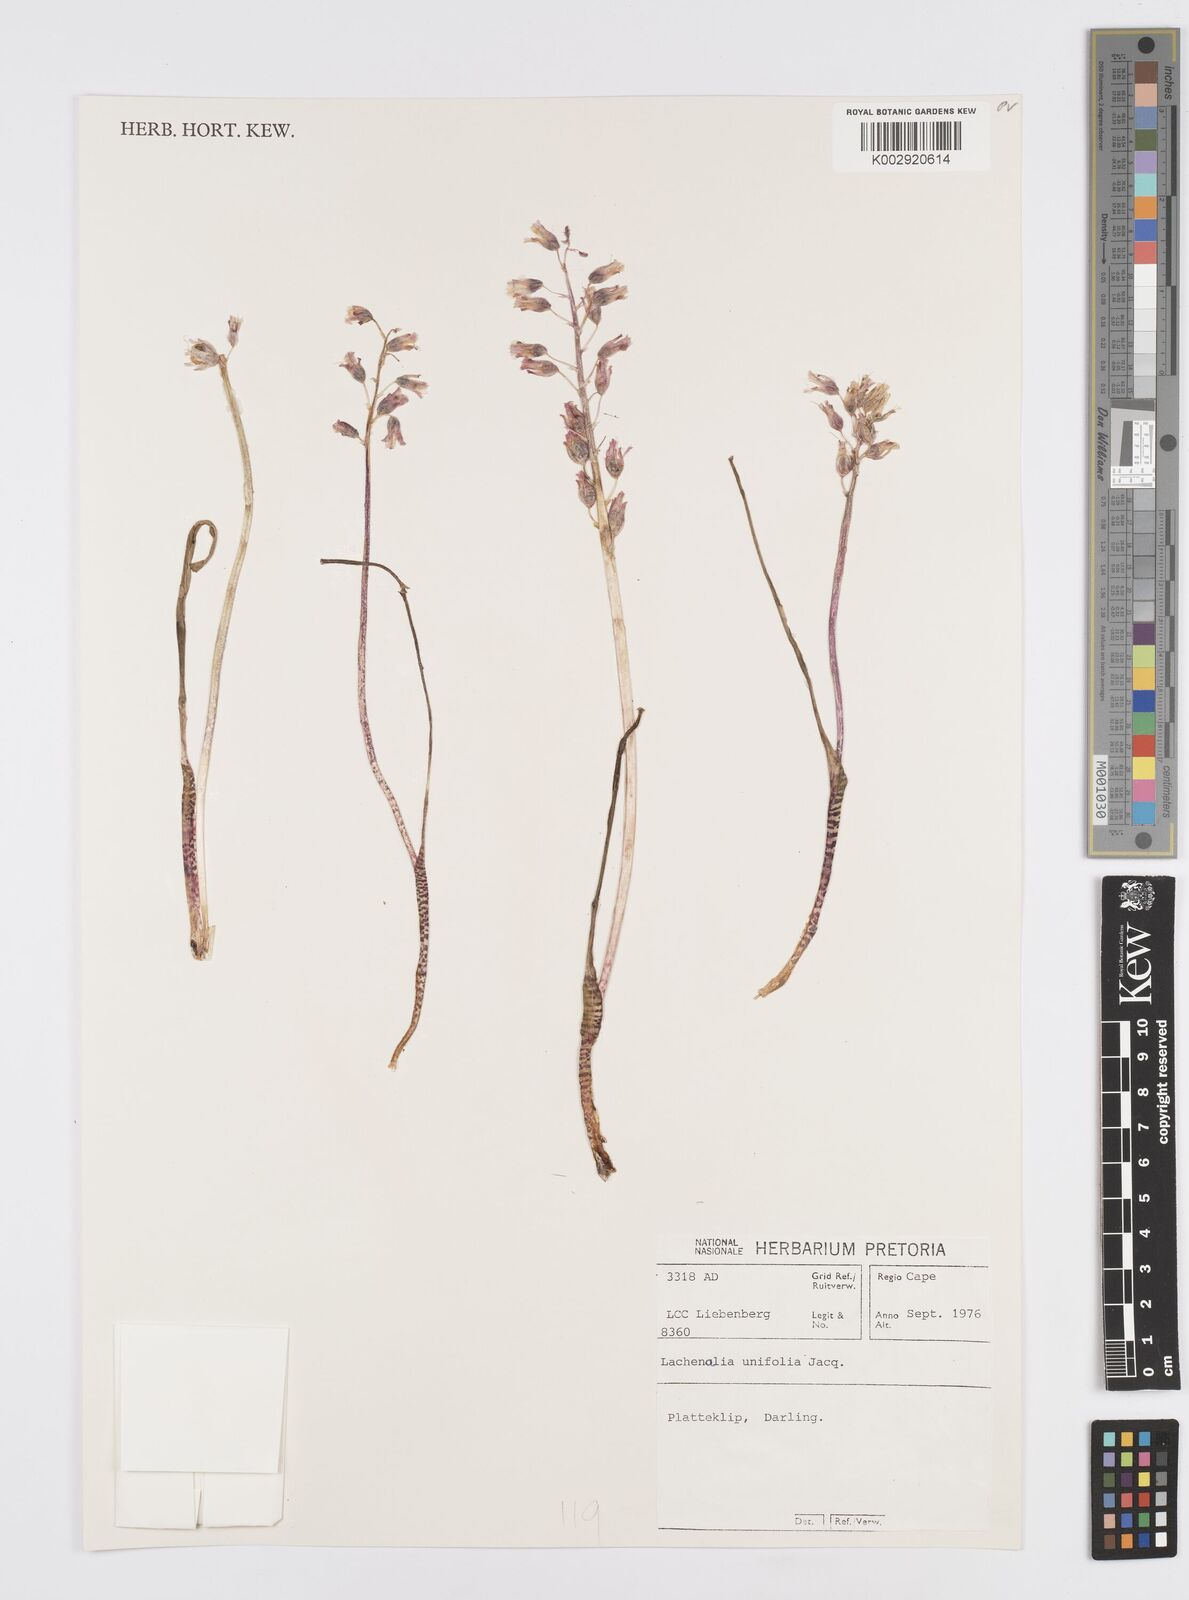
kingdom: Plantae
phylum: Tracheophyta
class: Liliopsida
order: Asparagales
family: Asparagaceae
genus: Lachenalia
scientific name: Lachenalia unifolia
